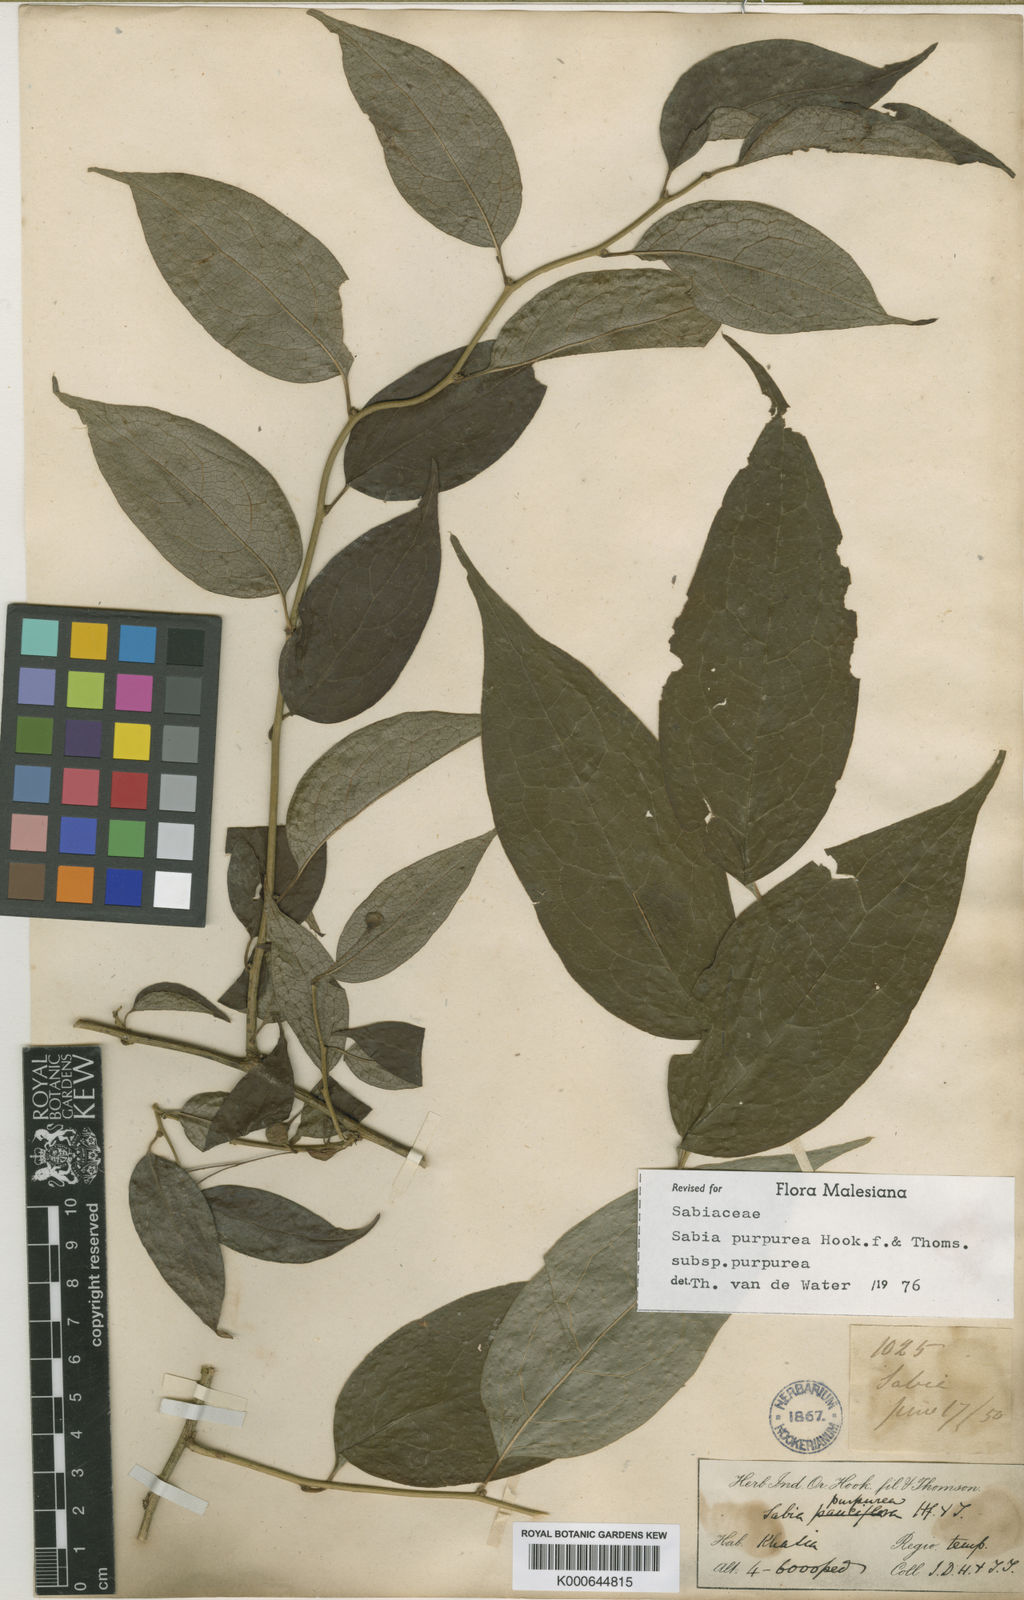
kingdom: Plantae
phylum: Tracheophyta
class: Magnoliopsida
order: Proteales
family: Sabiaceae
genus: Sabia
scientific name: Sabia purpurea
